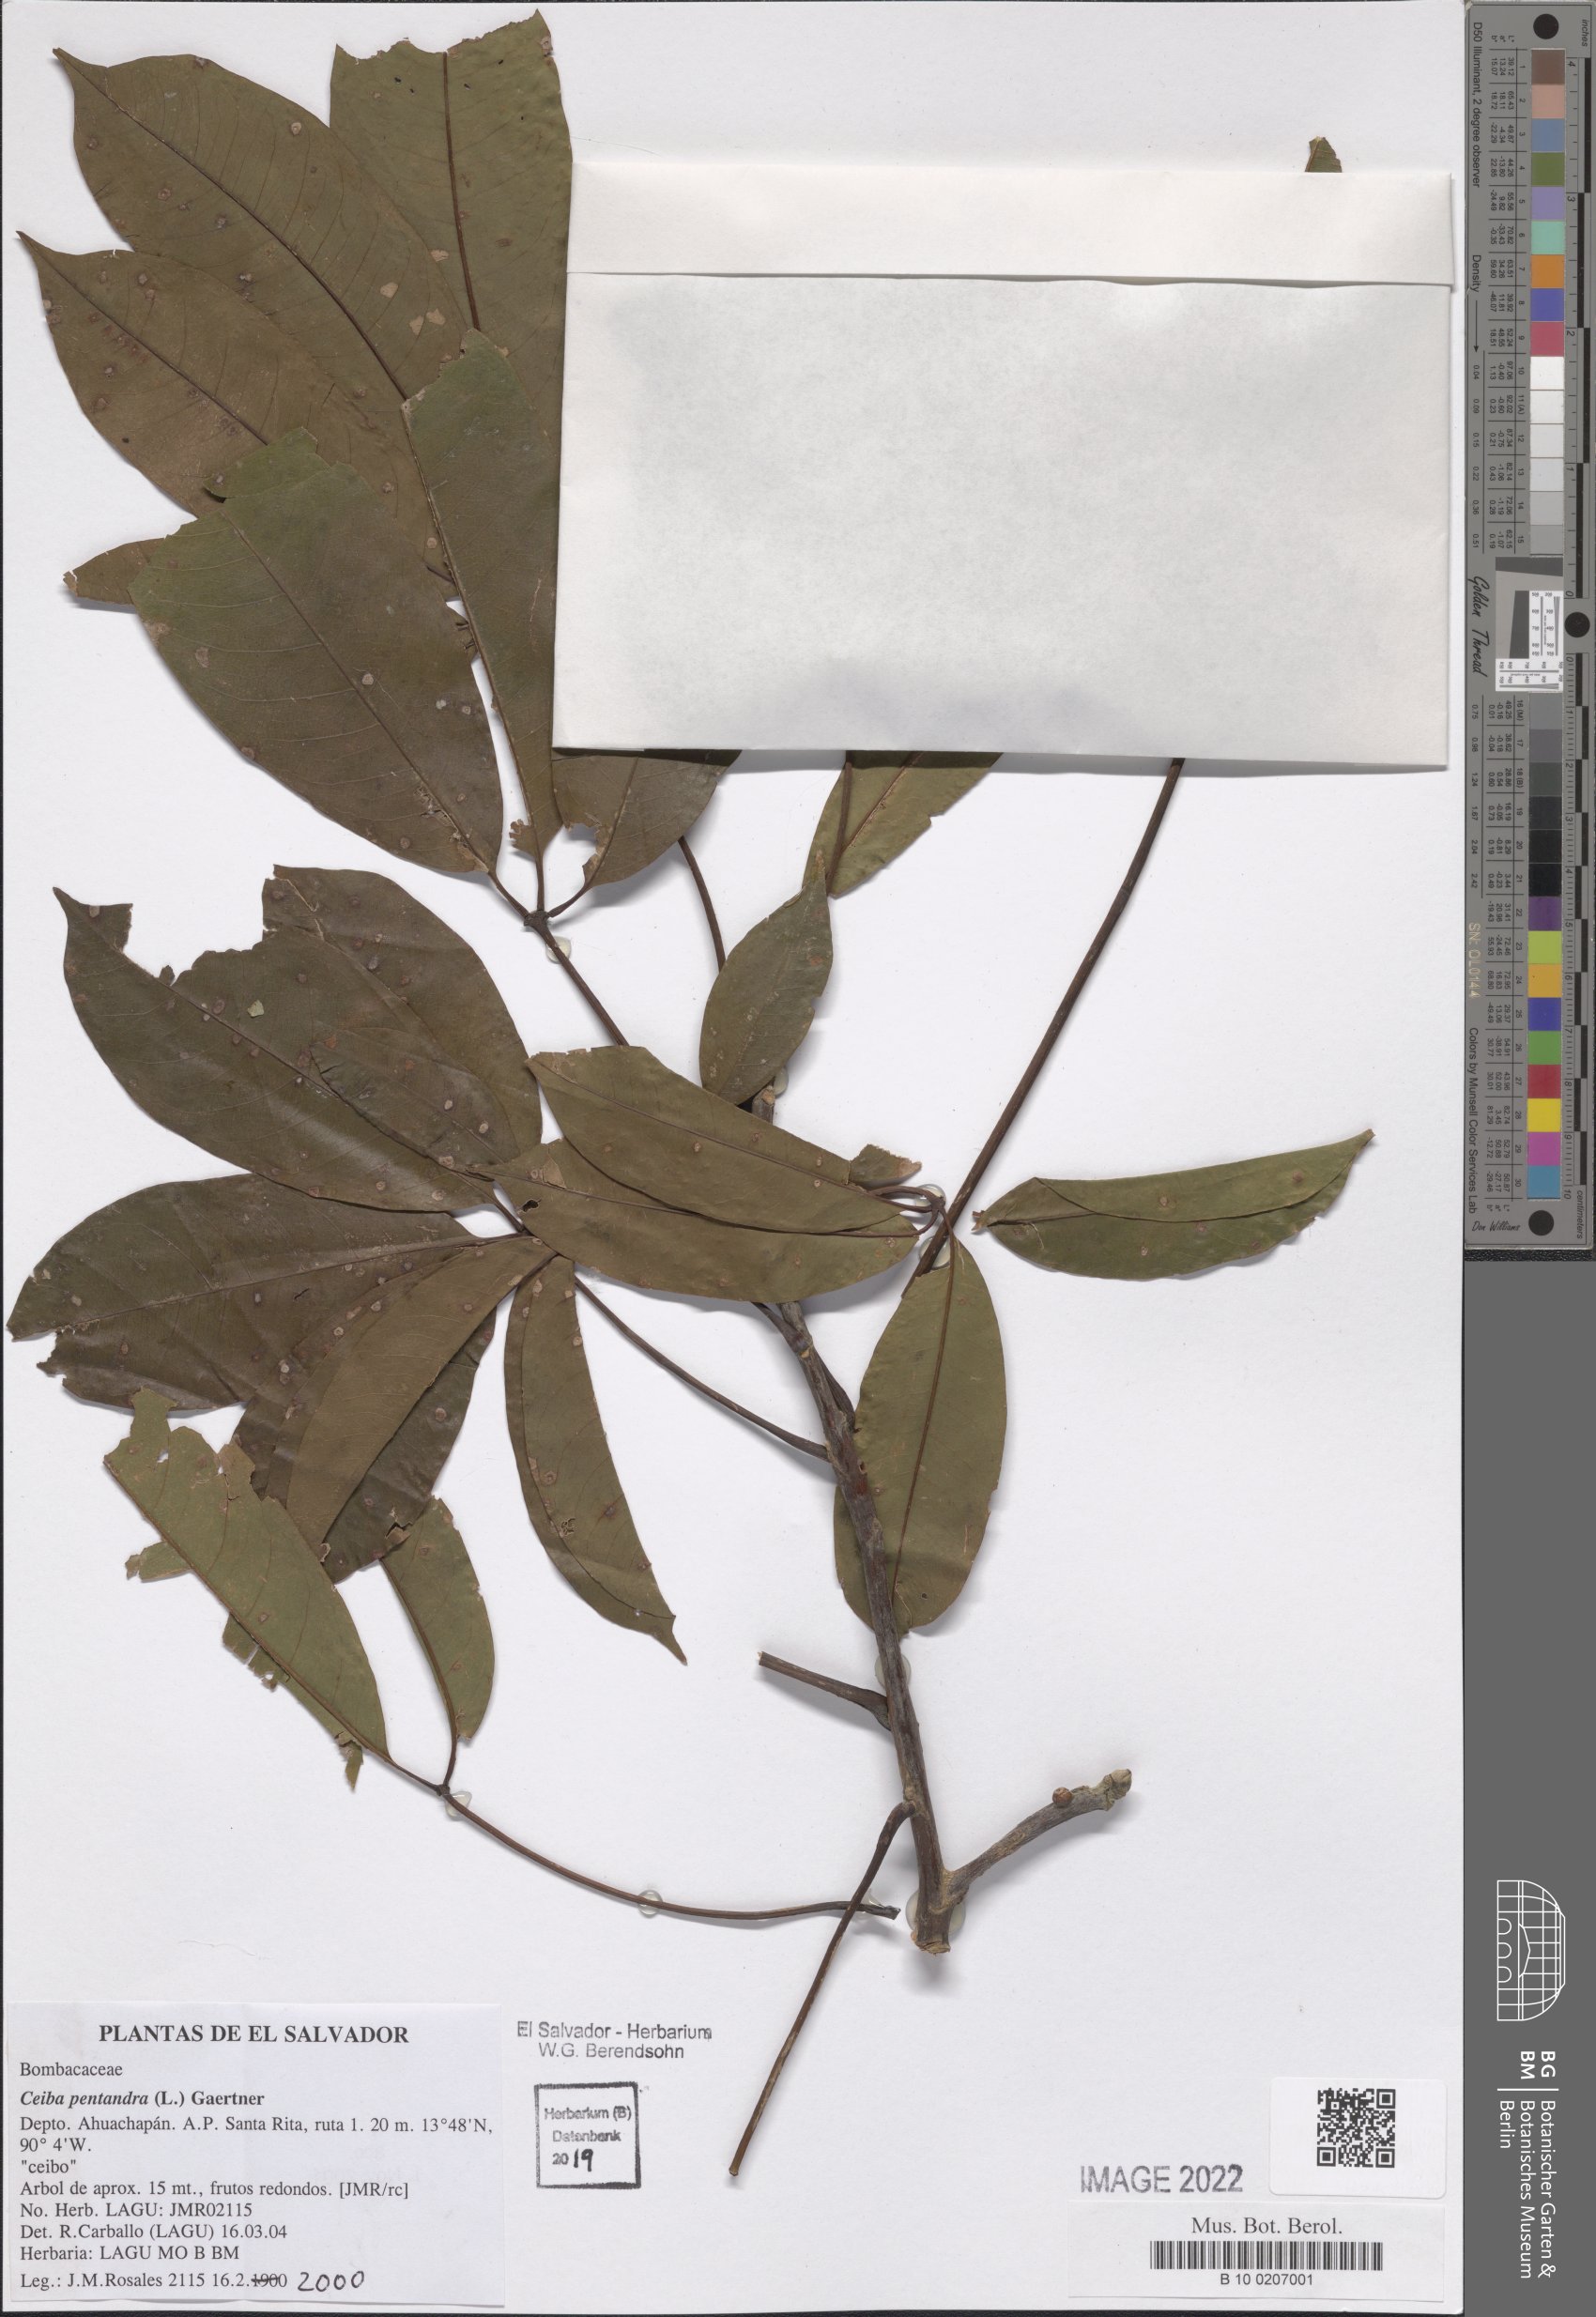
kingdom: Plantae
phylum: Tracheophyta
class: Magnoliopsida
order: Malvales
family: Malvaceae
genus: Ceiba
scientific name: Ceiba pentandra
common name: Kapok
